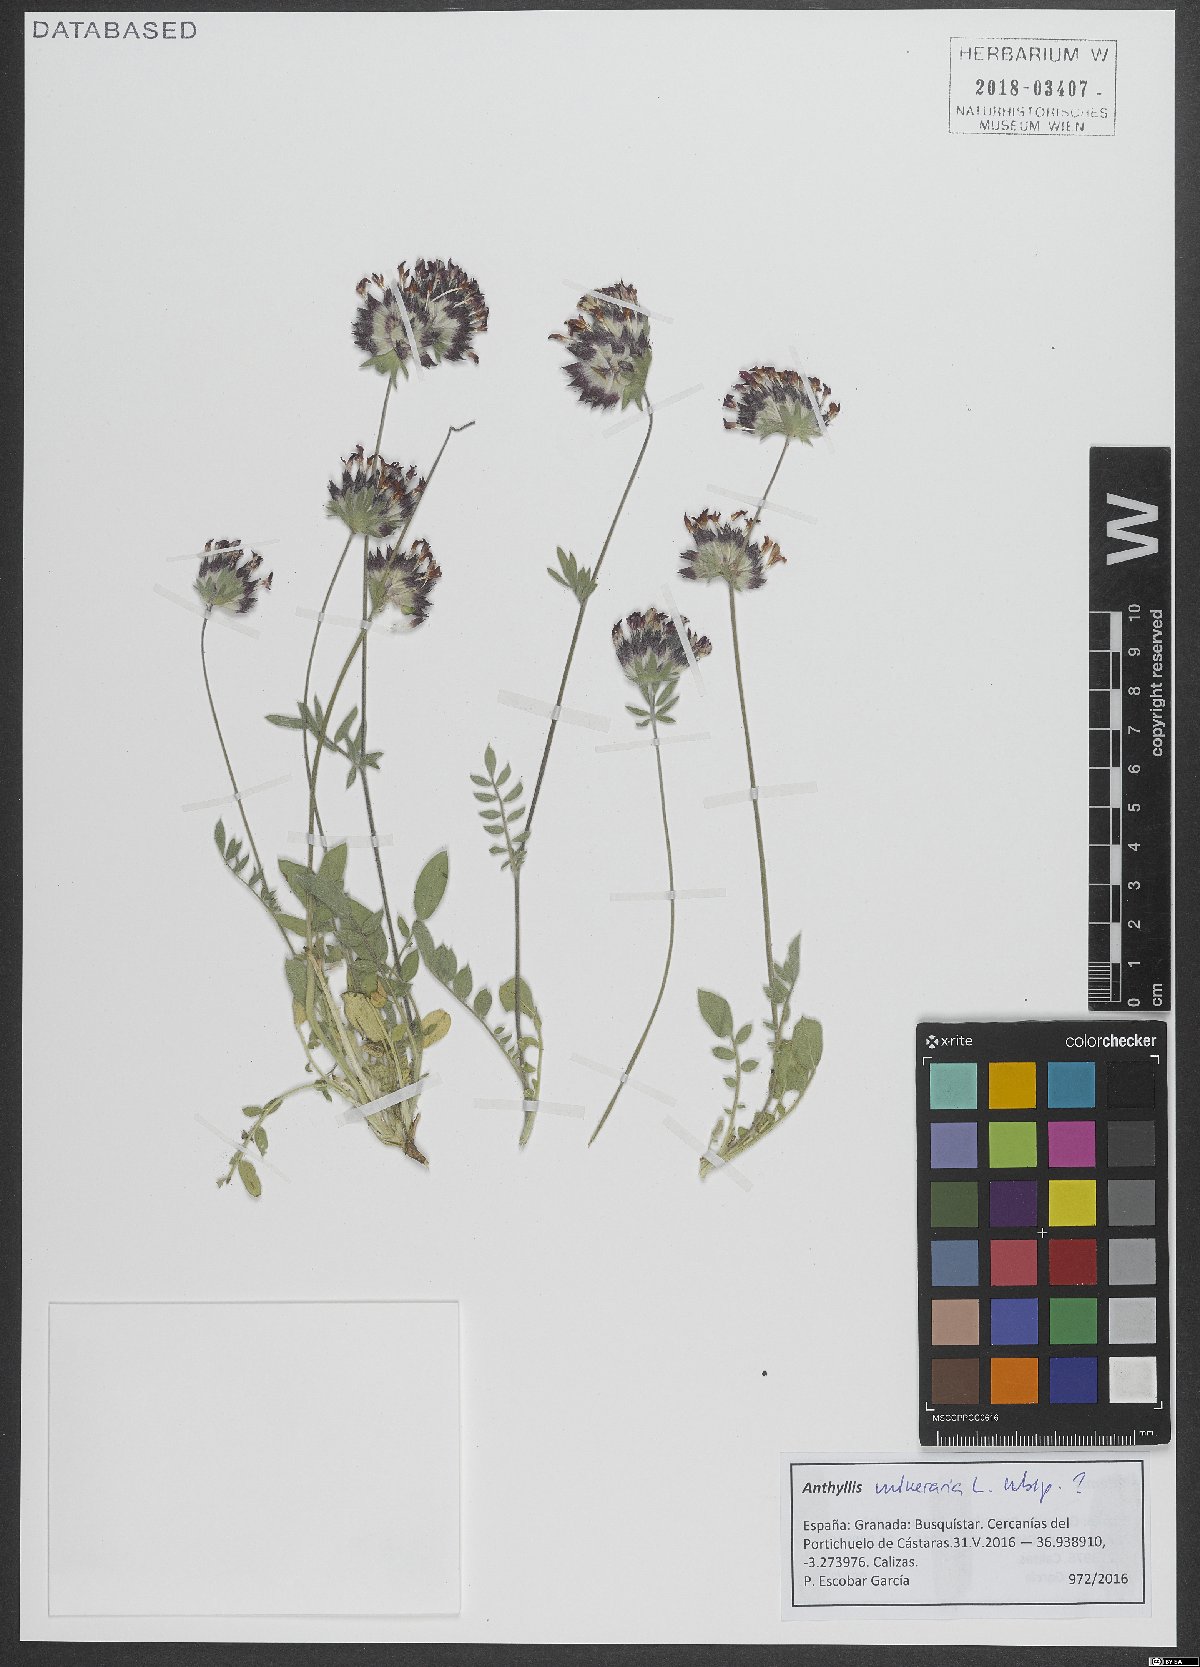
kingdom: Plantae
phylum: Tracheophyta
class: Magnoliopsida
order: Fabales
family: Fabaceae
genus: Anthyllis
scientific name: Anthyllis vulneraria
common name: Kidney vetch
